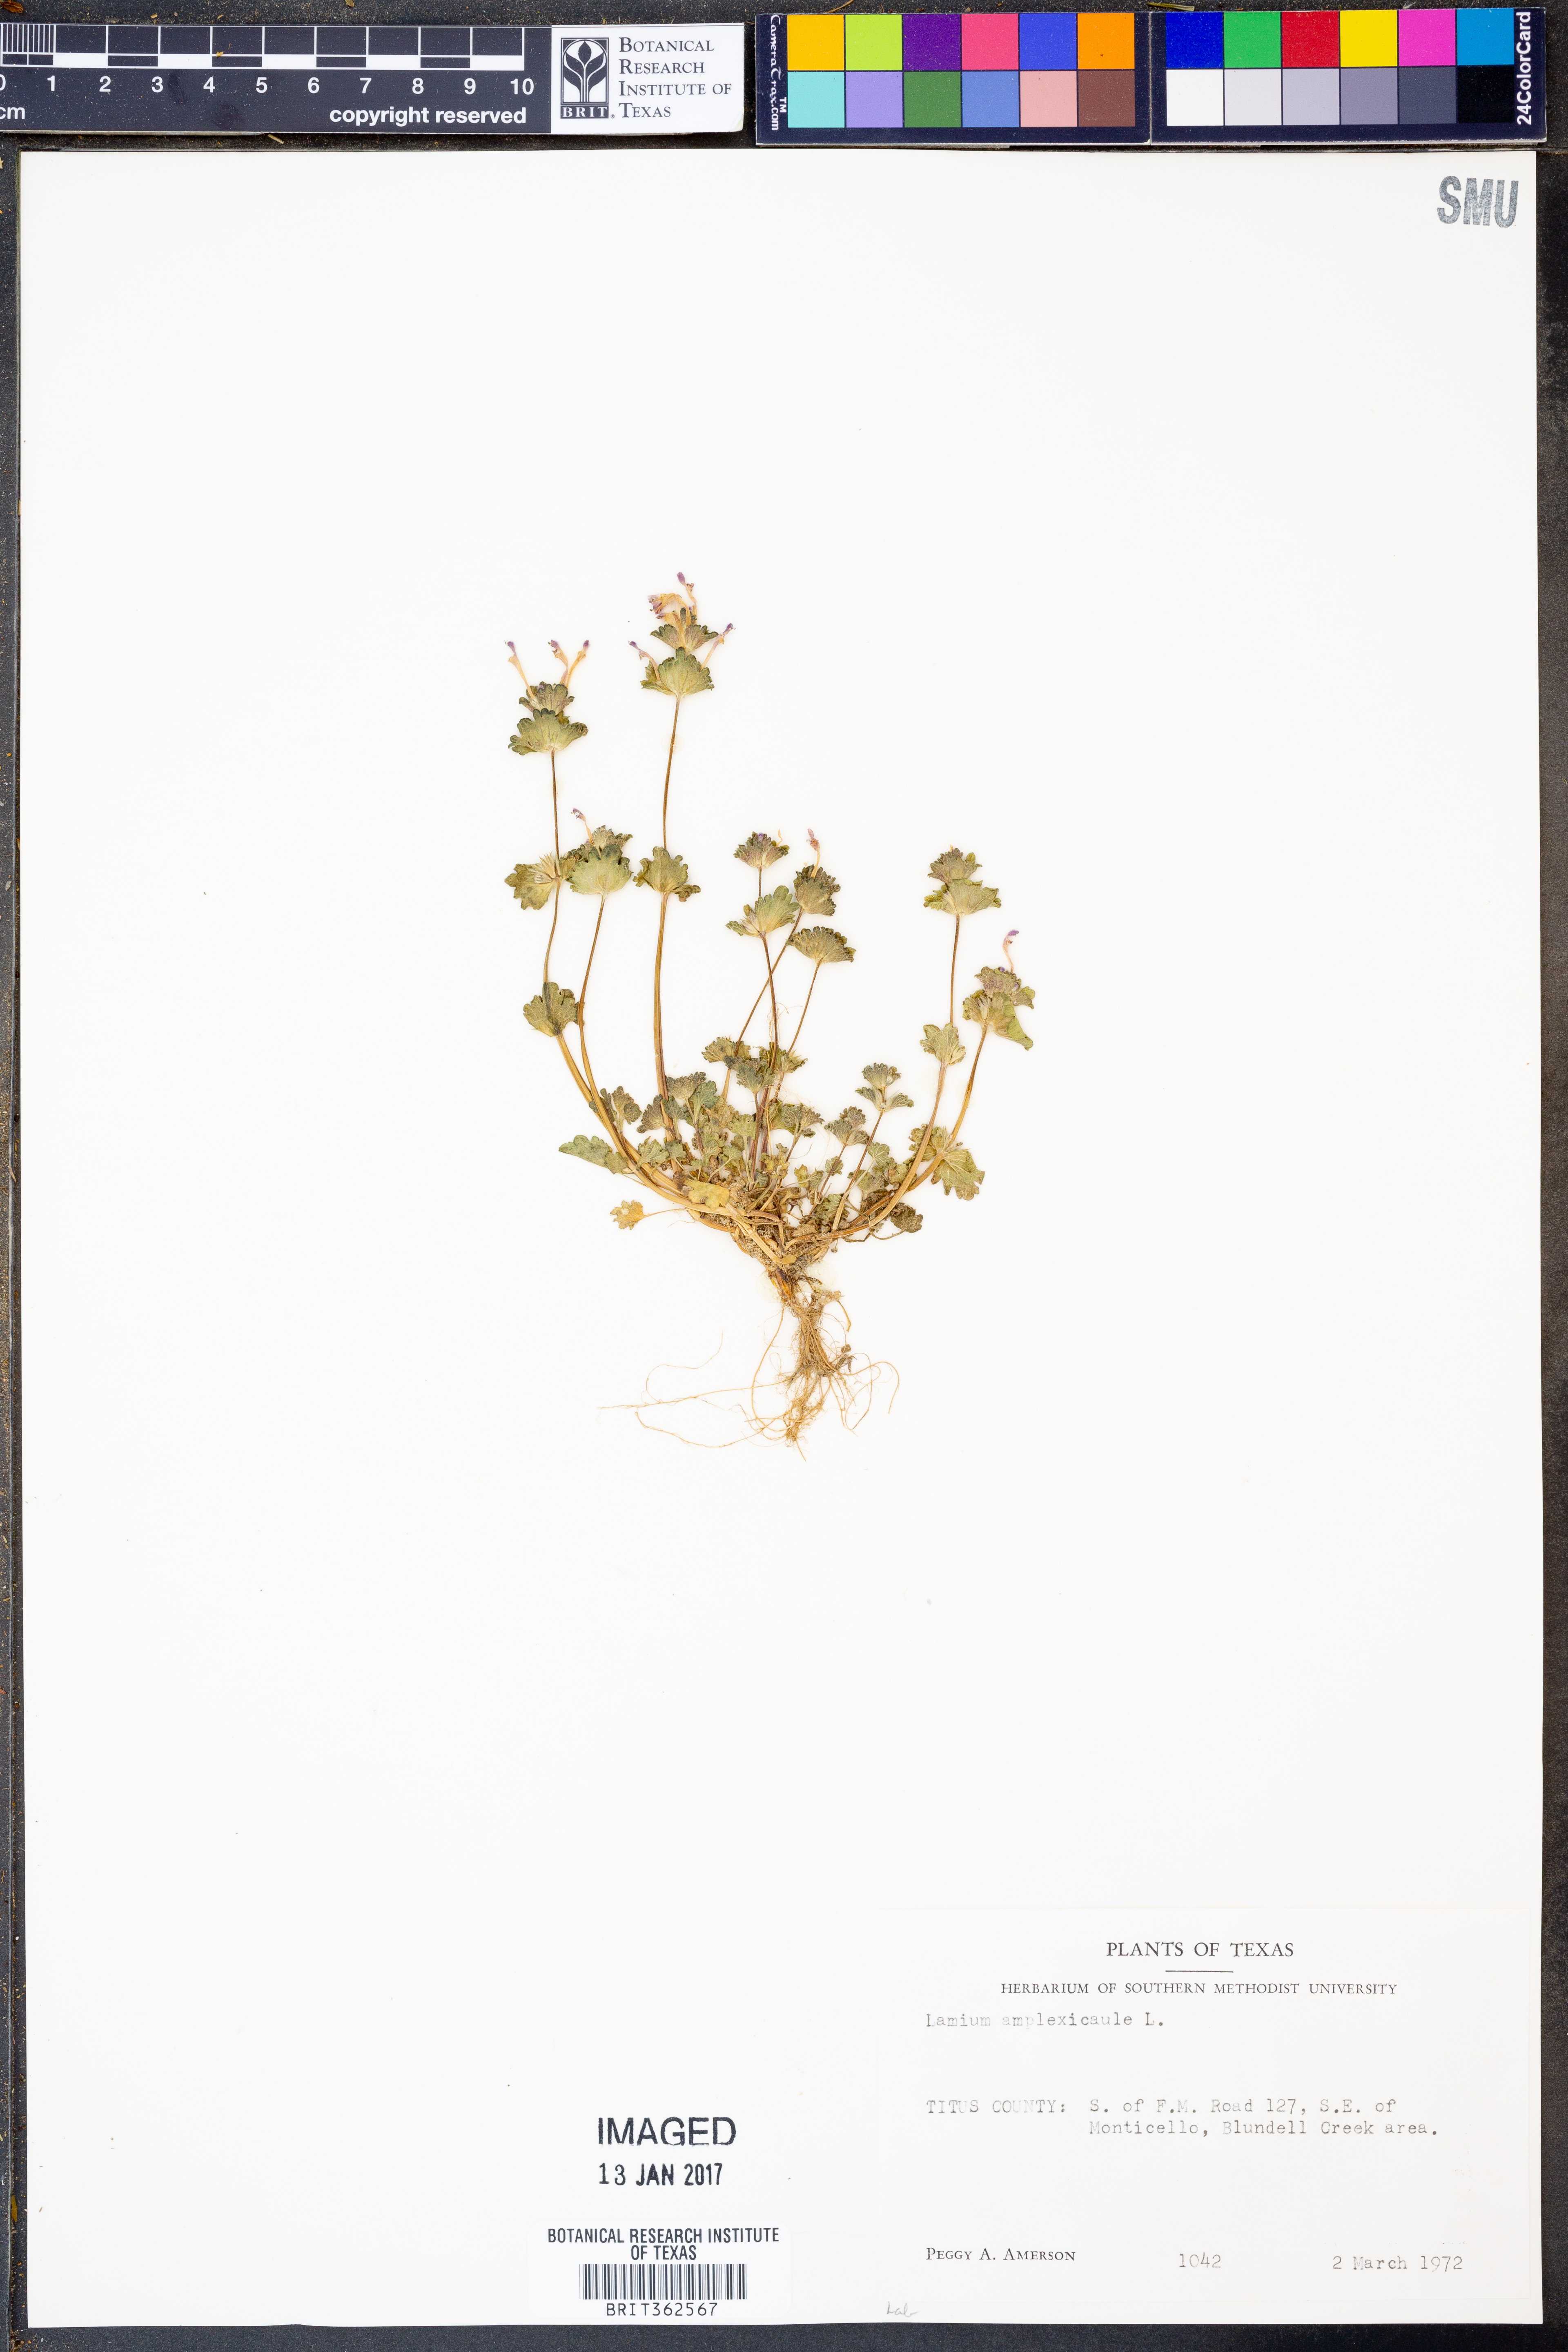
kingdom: Plantae
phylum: Tracheophyta
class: Magnoliopsida
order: Lamiales
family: Lamiaceae
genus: Lamium
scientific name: Lamium amplexicaule
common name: Henbit dead-nettle
